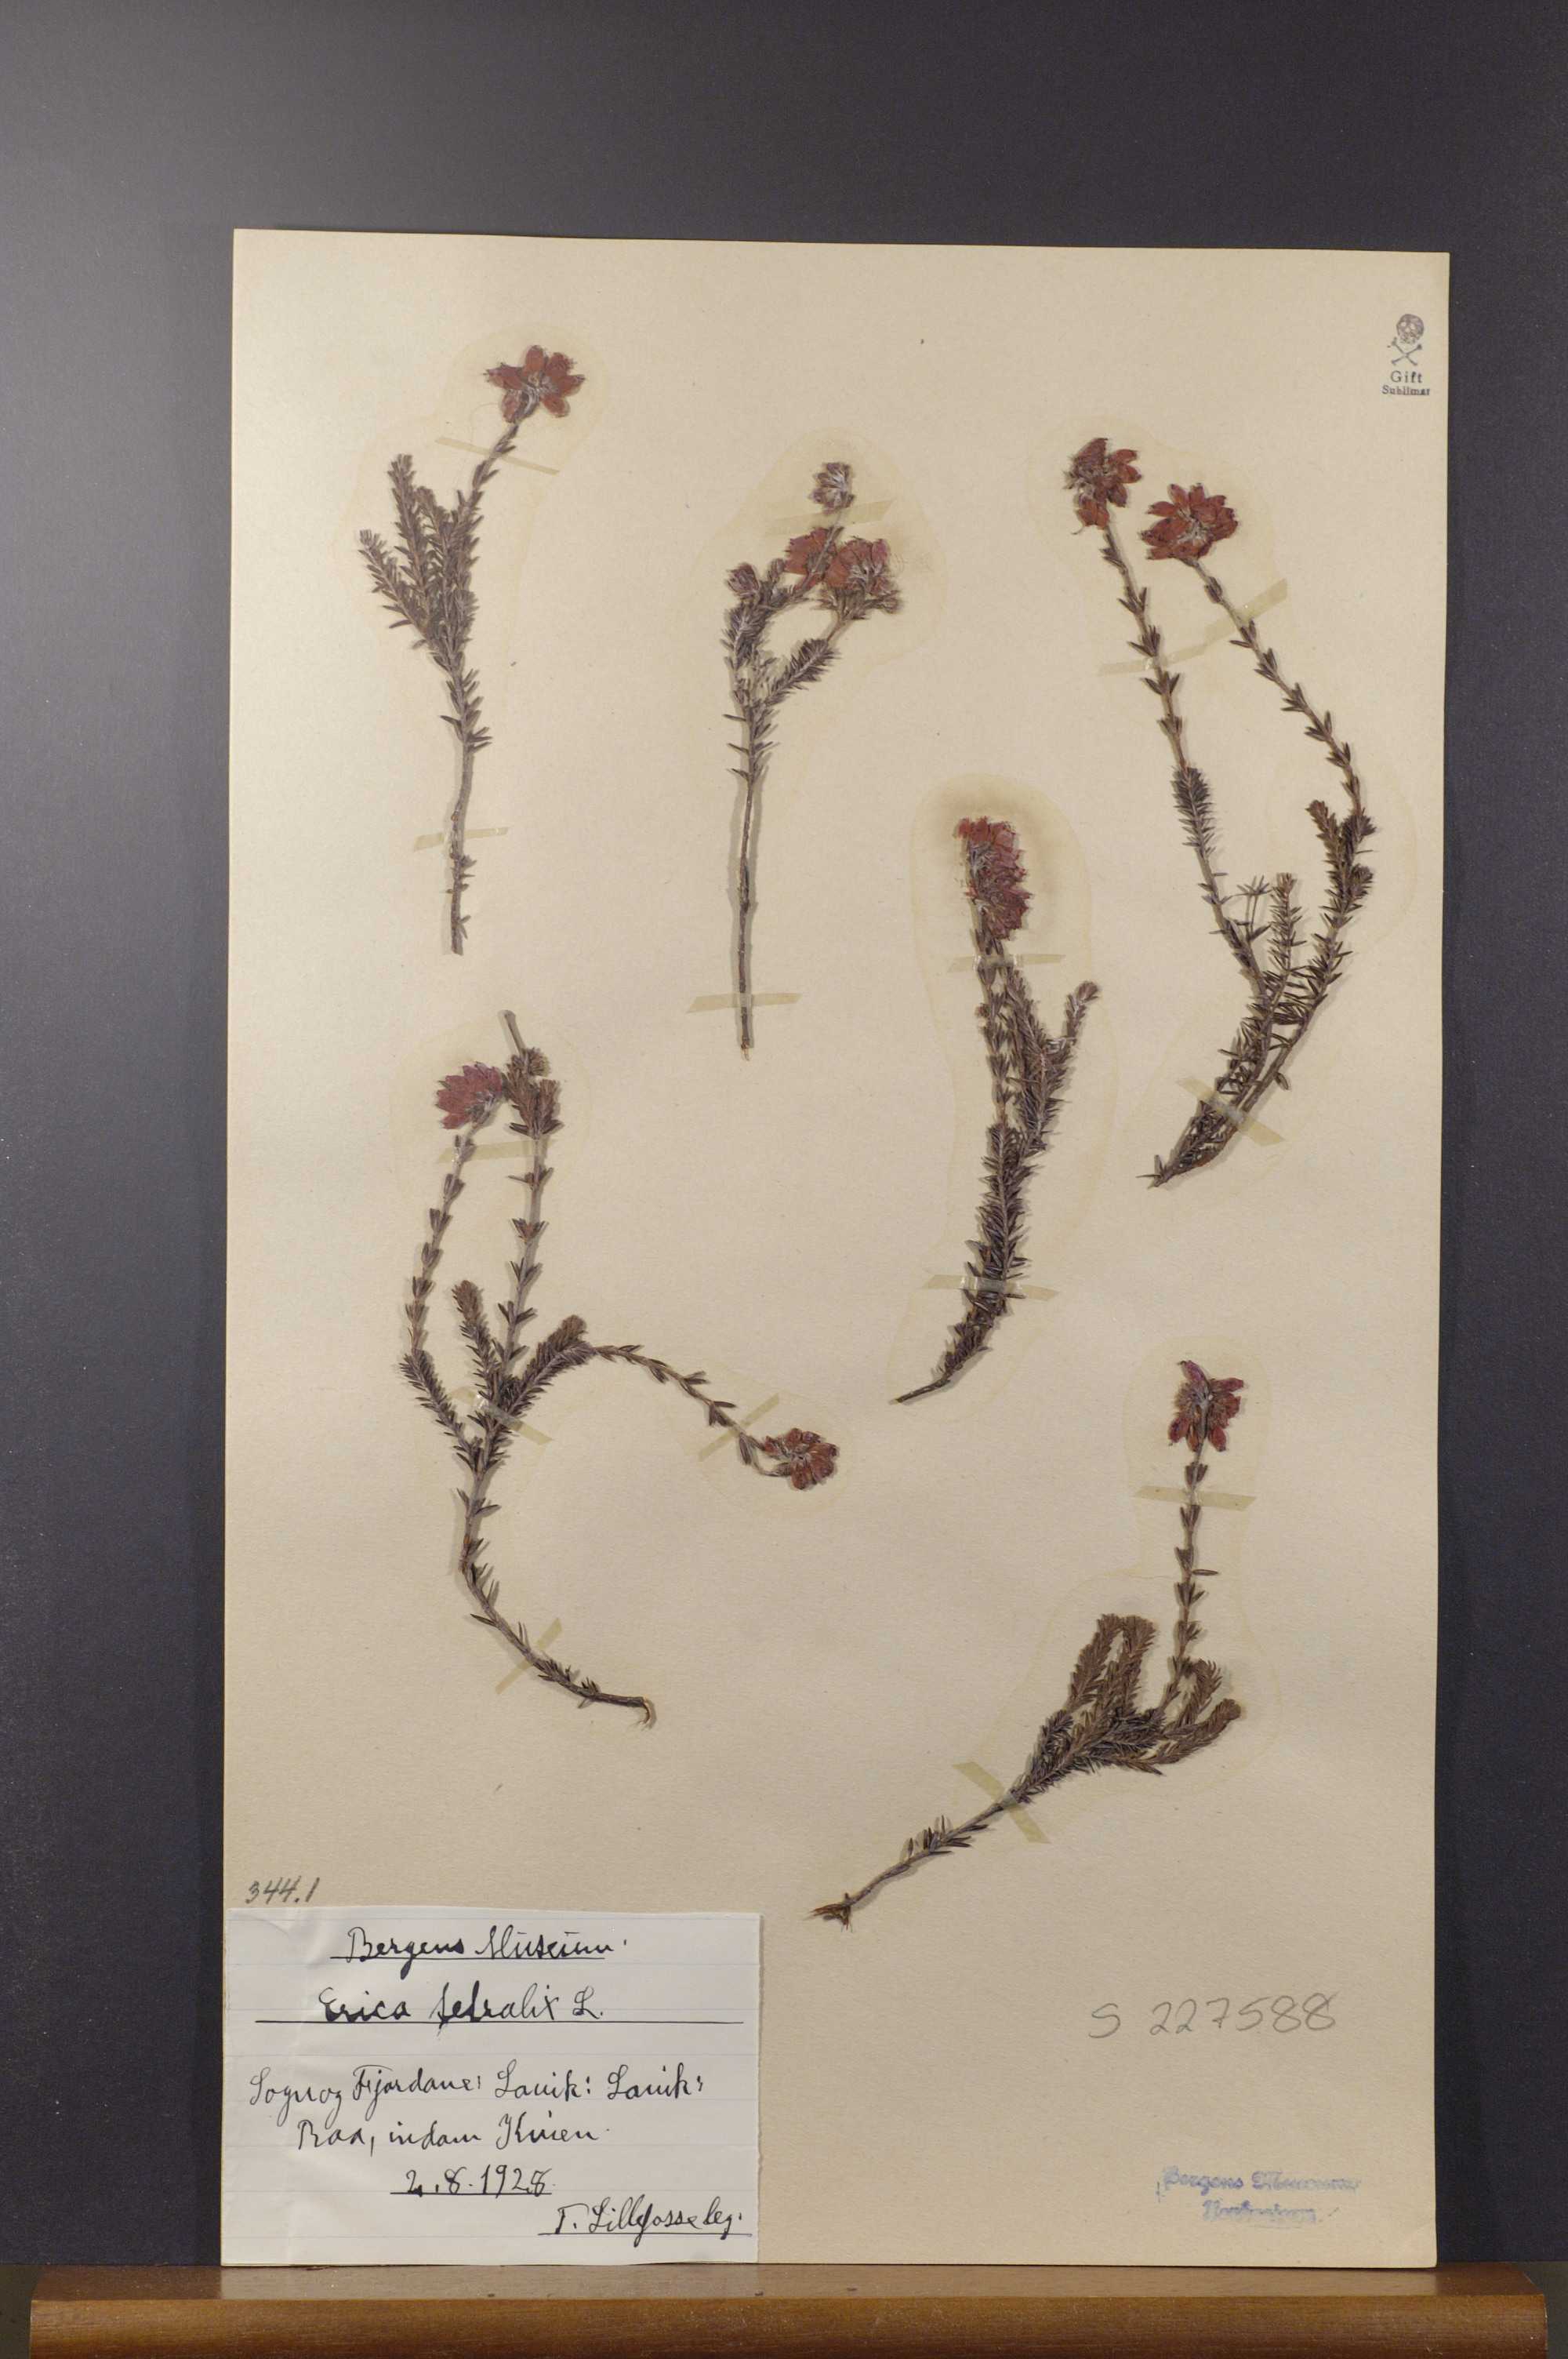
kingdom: Plantae
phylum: Tracheophyta
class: Magnoliopsida
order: Ericales
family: Ericaceae
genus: Erica
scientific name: Erica tetralix
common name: Cross-leaved heath
